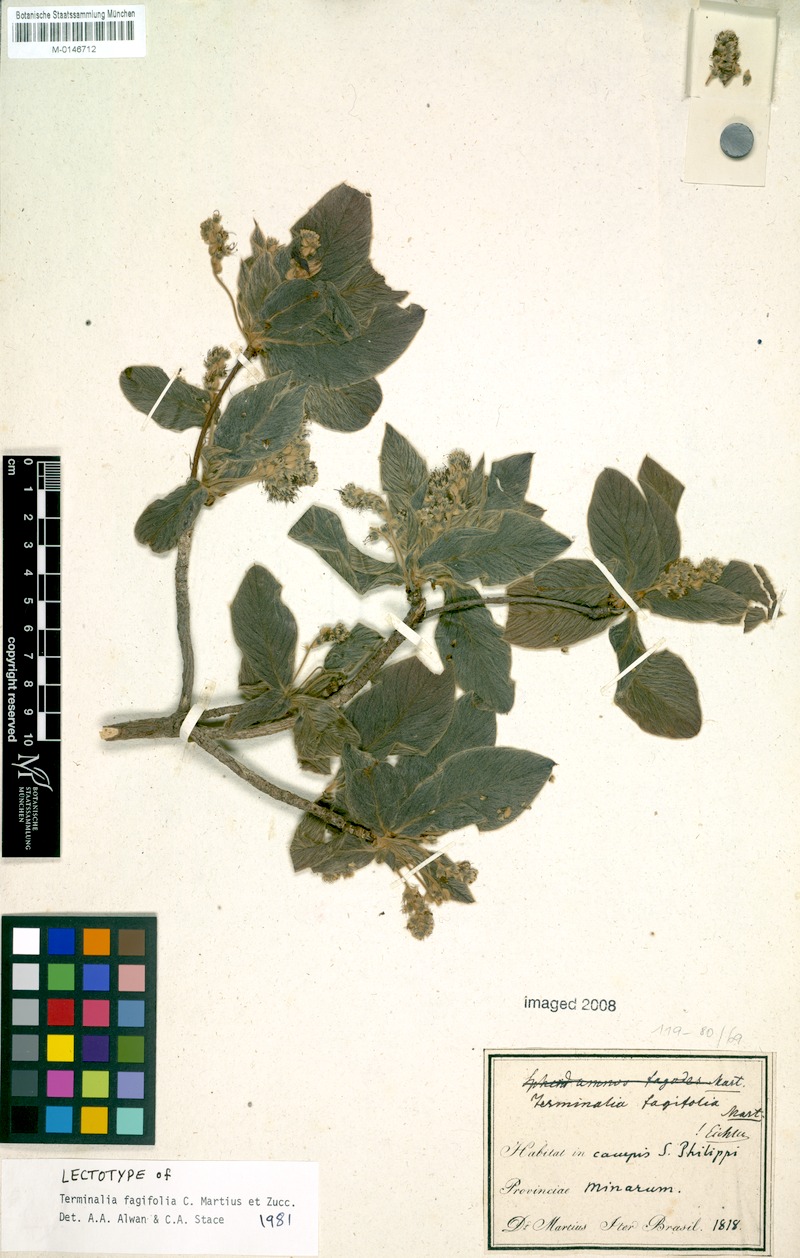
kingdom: Plantae
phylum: Tracheophyta
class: Magnoliopsida
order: Myrtales
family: Combretaceae
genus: Terminalia
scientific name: Terminalia fagifolia
